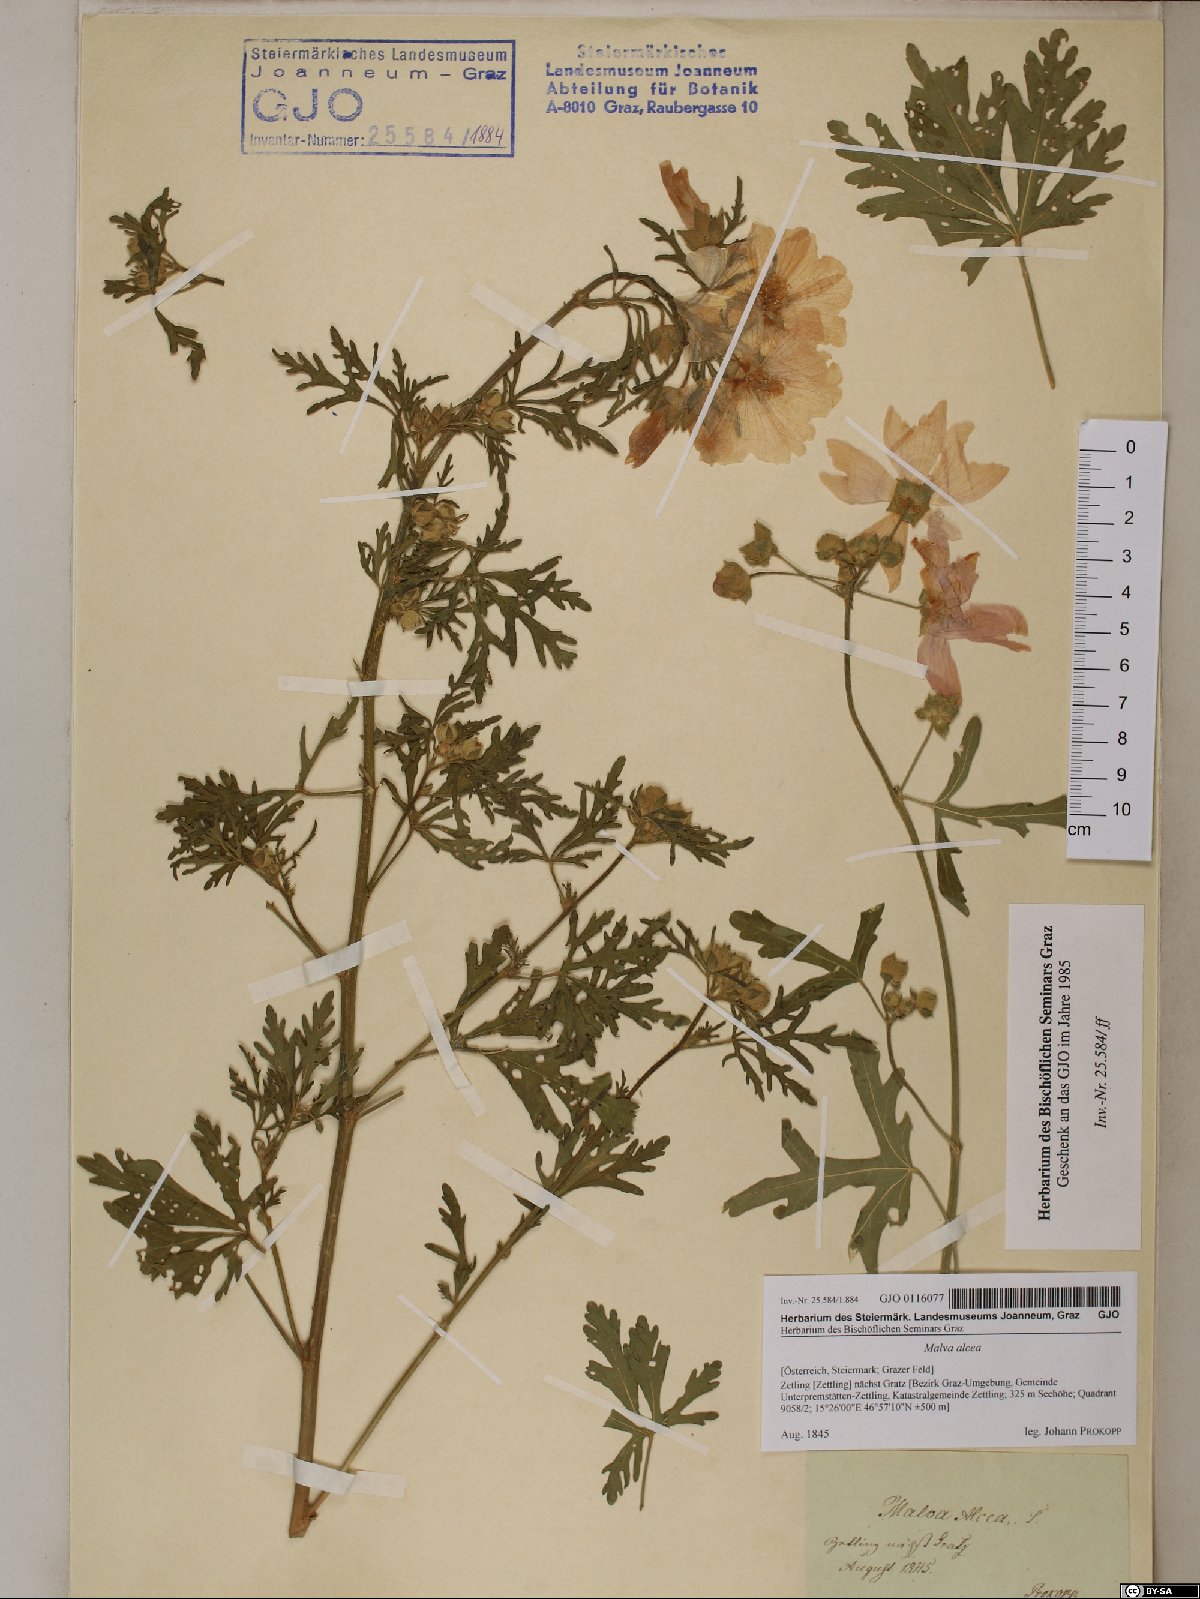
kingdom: Plantae
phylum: Tracheophyta
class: Magnoliopsida
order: Malvales
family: Malvaceae
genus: Malva
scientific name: Malva alcea
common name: Greater musk-mallow
